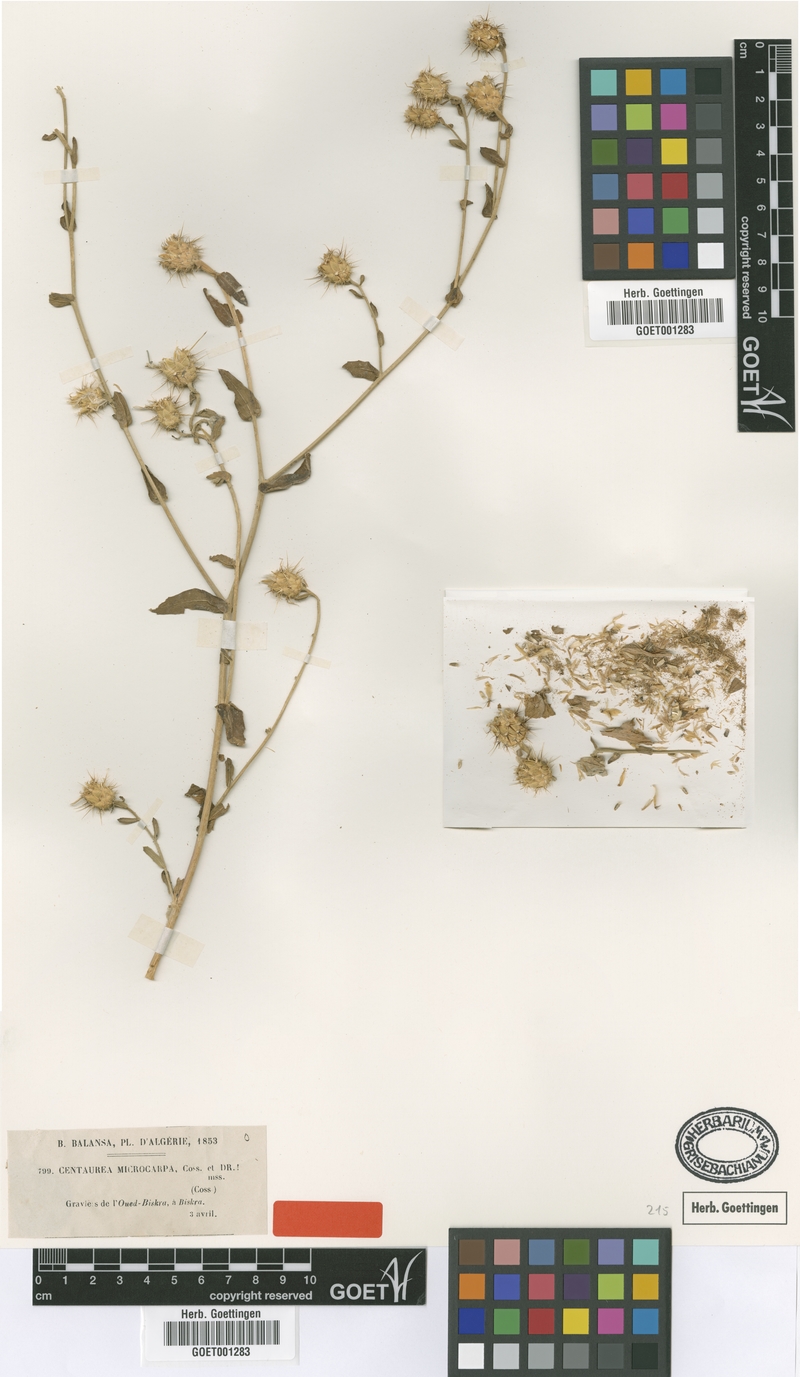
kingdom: Plantae
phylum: Tracheophyta
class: Magnoliopsida
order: Asterales
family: Asteraceae
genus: Centaurea
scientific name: Centaurea microcarpa
